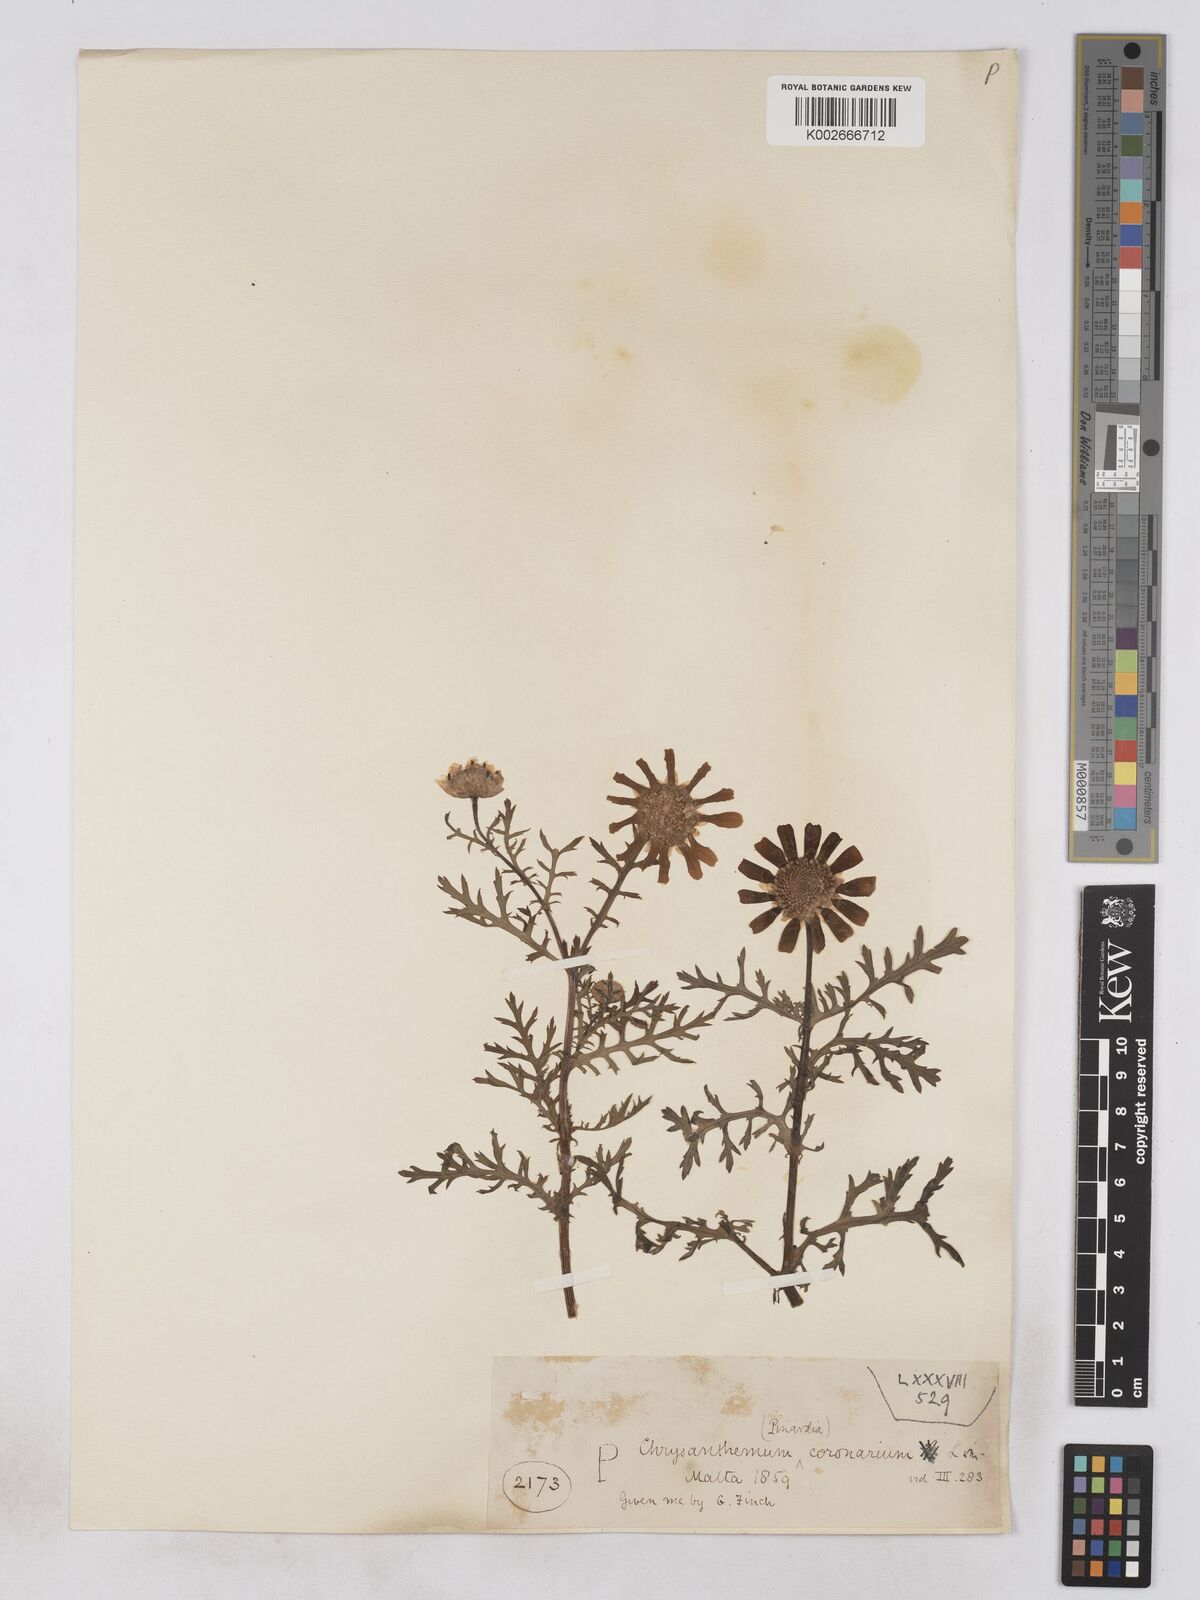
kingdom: Plantae
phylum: Tracheophyta
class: Magnoliopsida
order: Asterales
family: Asteraceae
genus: Glebionis
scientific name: Glebionis coronaria
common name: Crowndaisy
